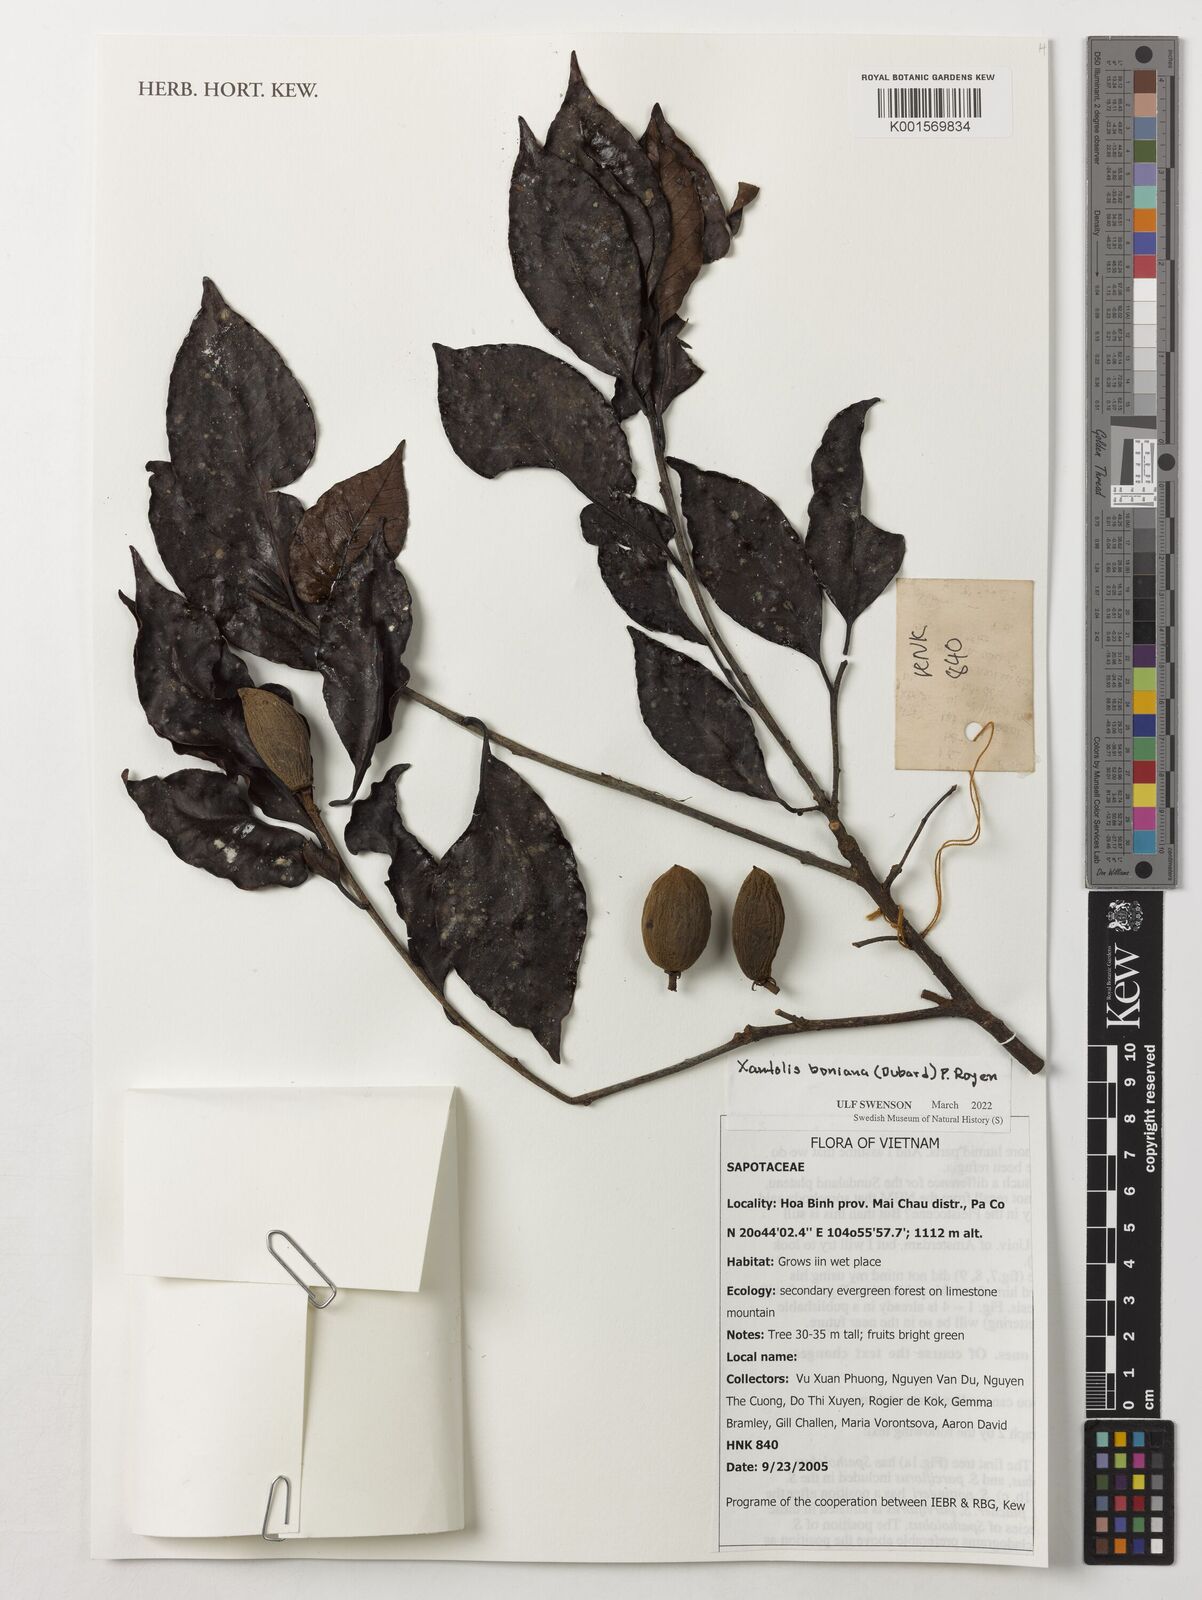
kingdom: Plantae
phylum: Tracheophyta
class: Magnoliopsida
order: Ericales
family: Sapotaceae
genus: Xantolis
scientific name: Xantolis boniana
